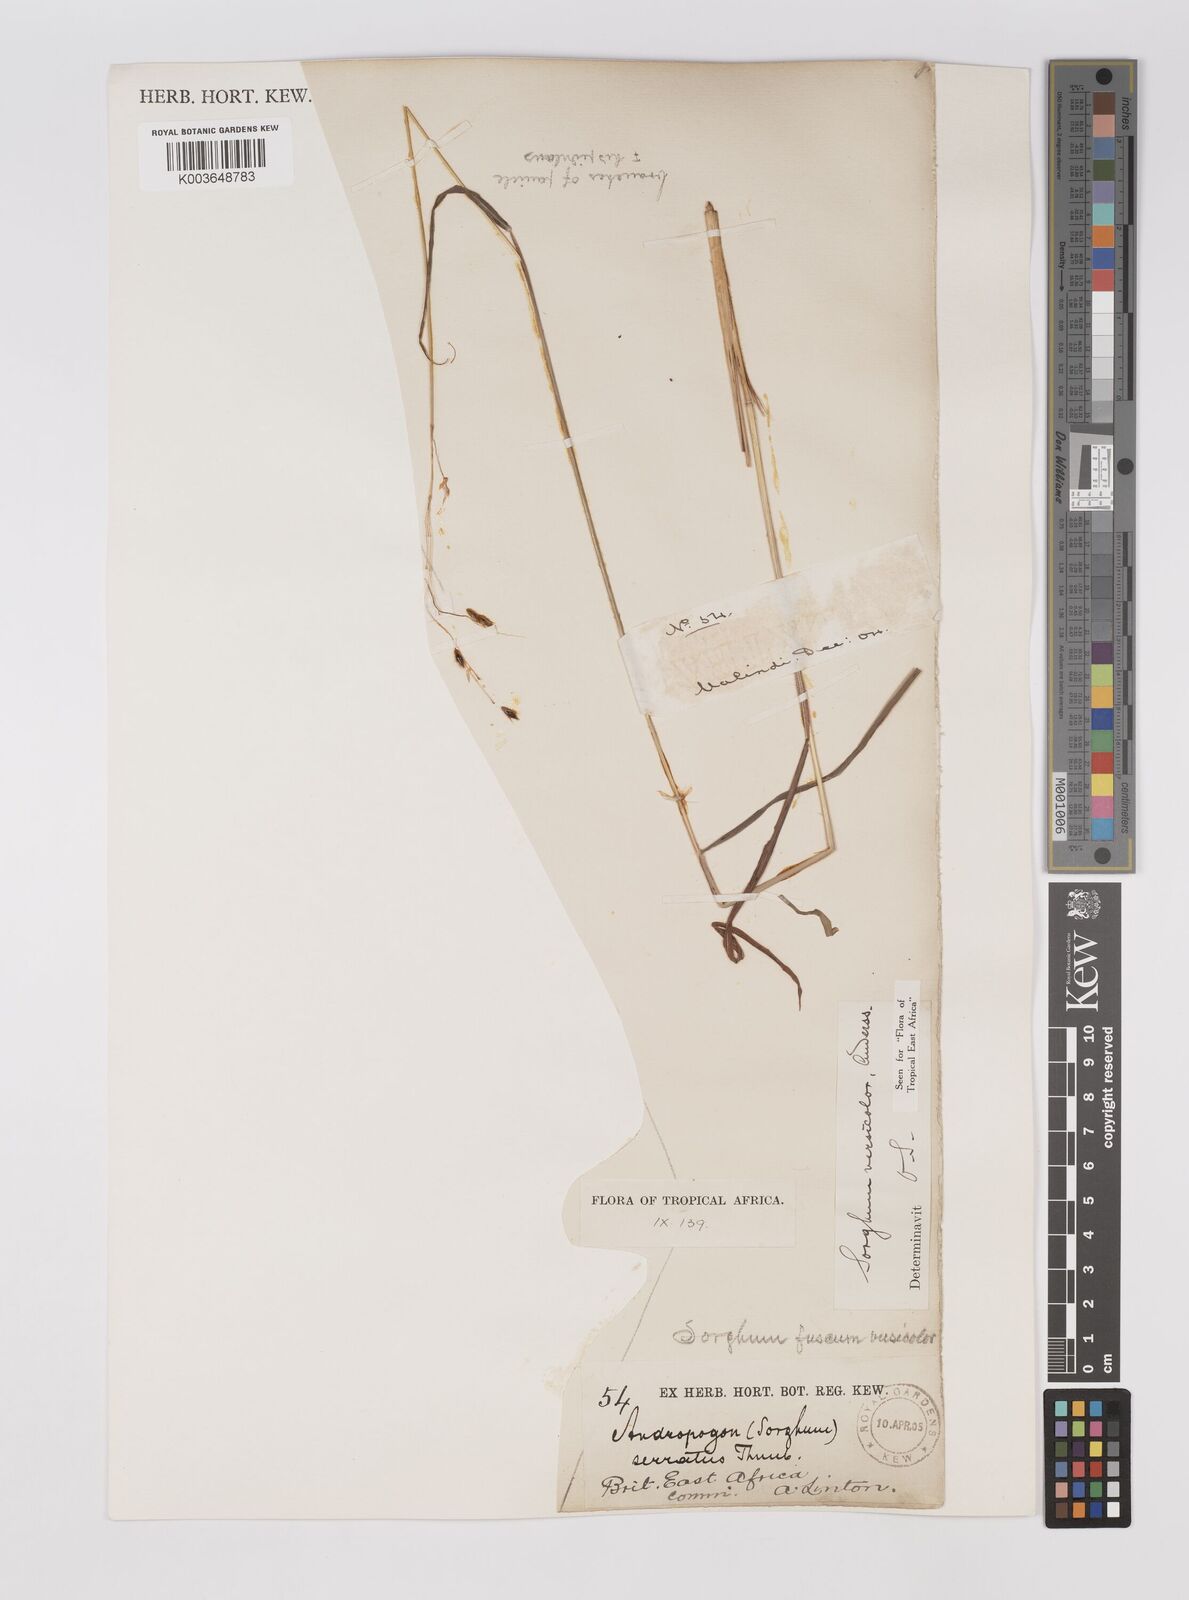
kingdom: Plantae
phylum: Tracheophyta
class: Liliopsida
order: Poales
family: Poaceae
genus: Sarga
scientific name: Sarga versicolor
